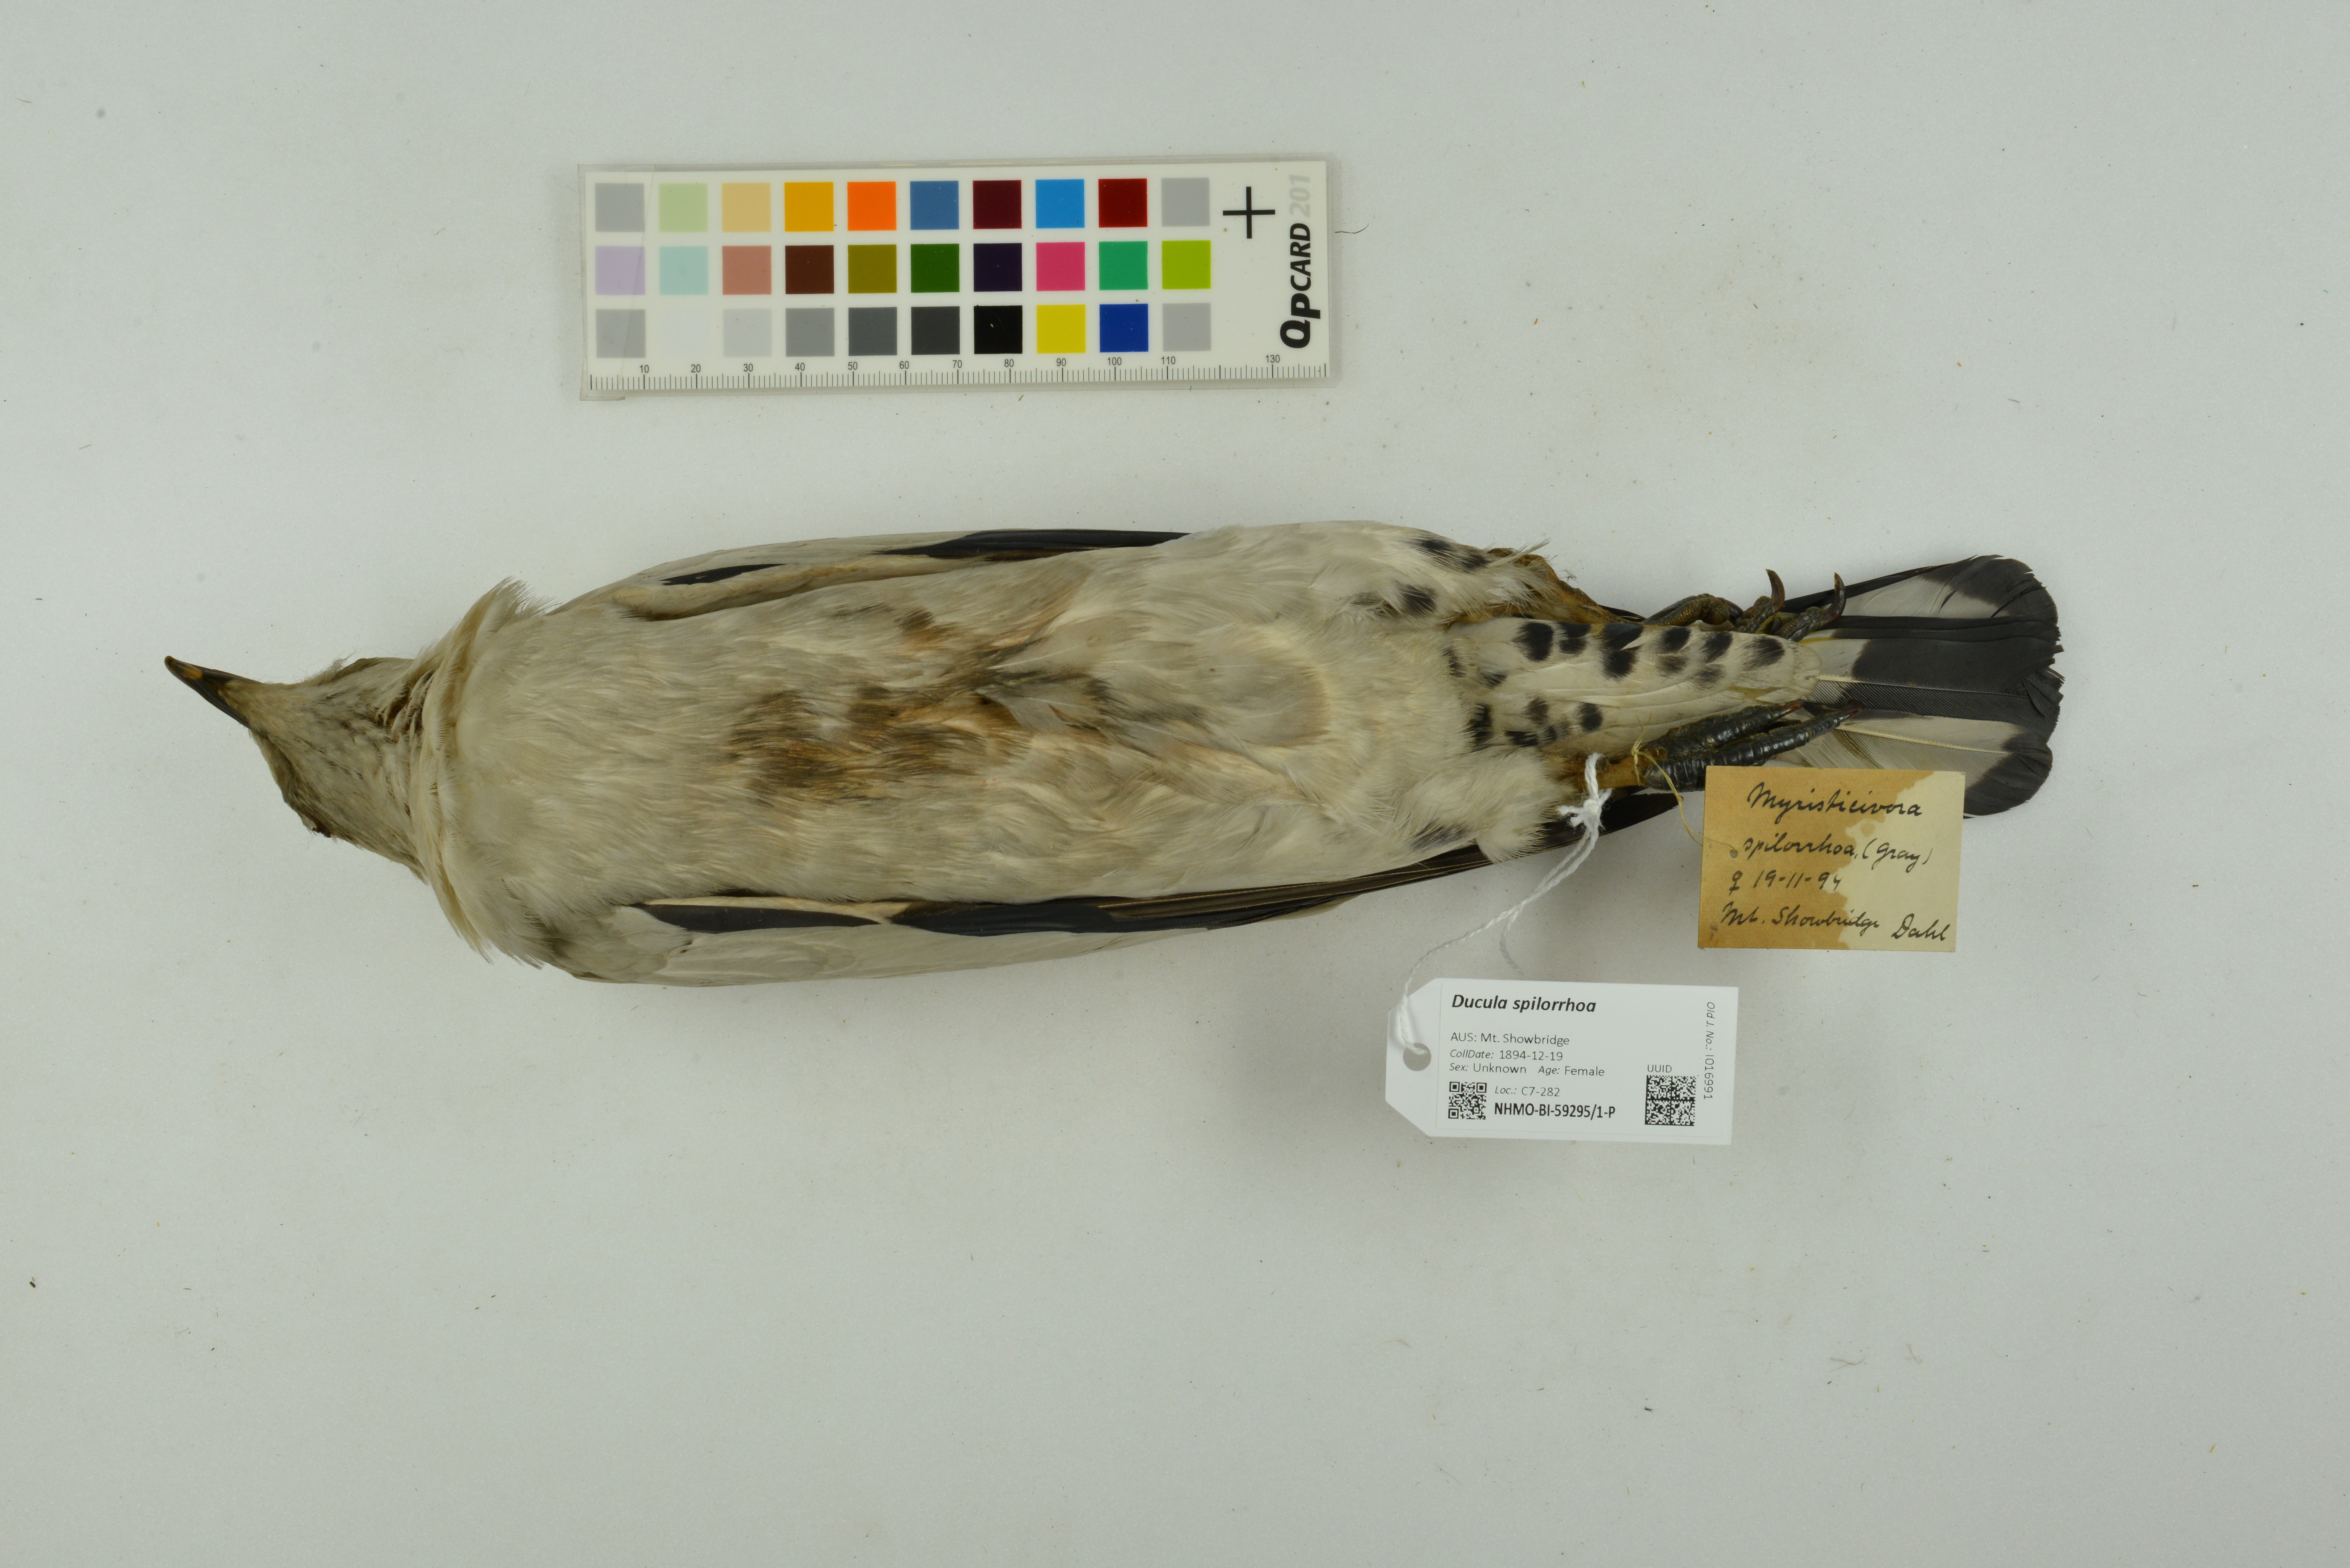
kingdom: Animalia
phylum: Chordata
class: Aves
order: Columbiformes
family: Columbidae
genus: Ducula
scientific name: Ducula spilorrhoa
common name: Torresian imperial pigeon
